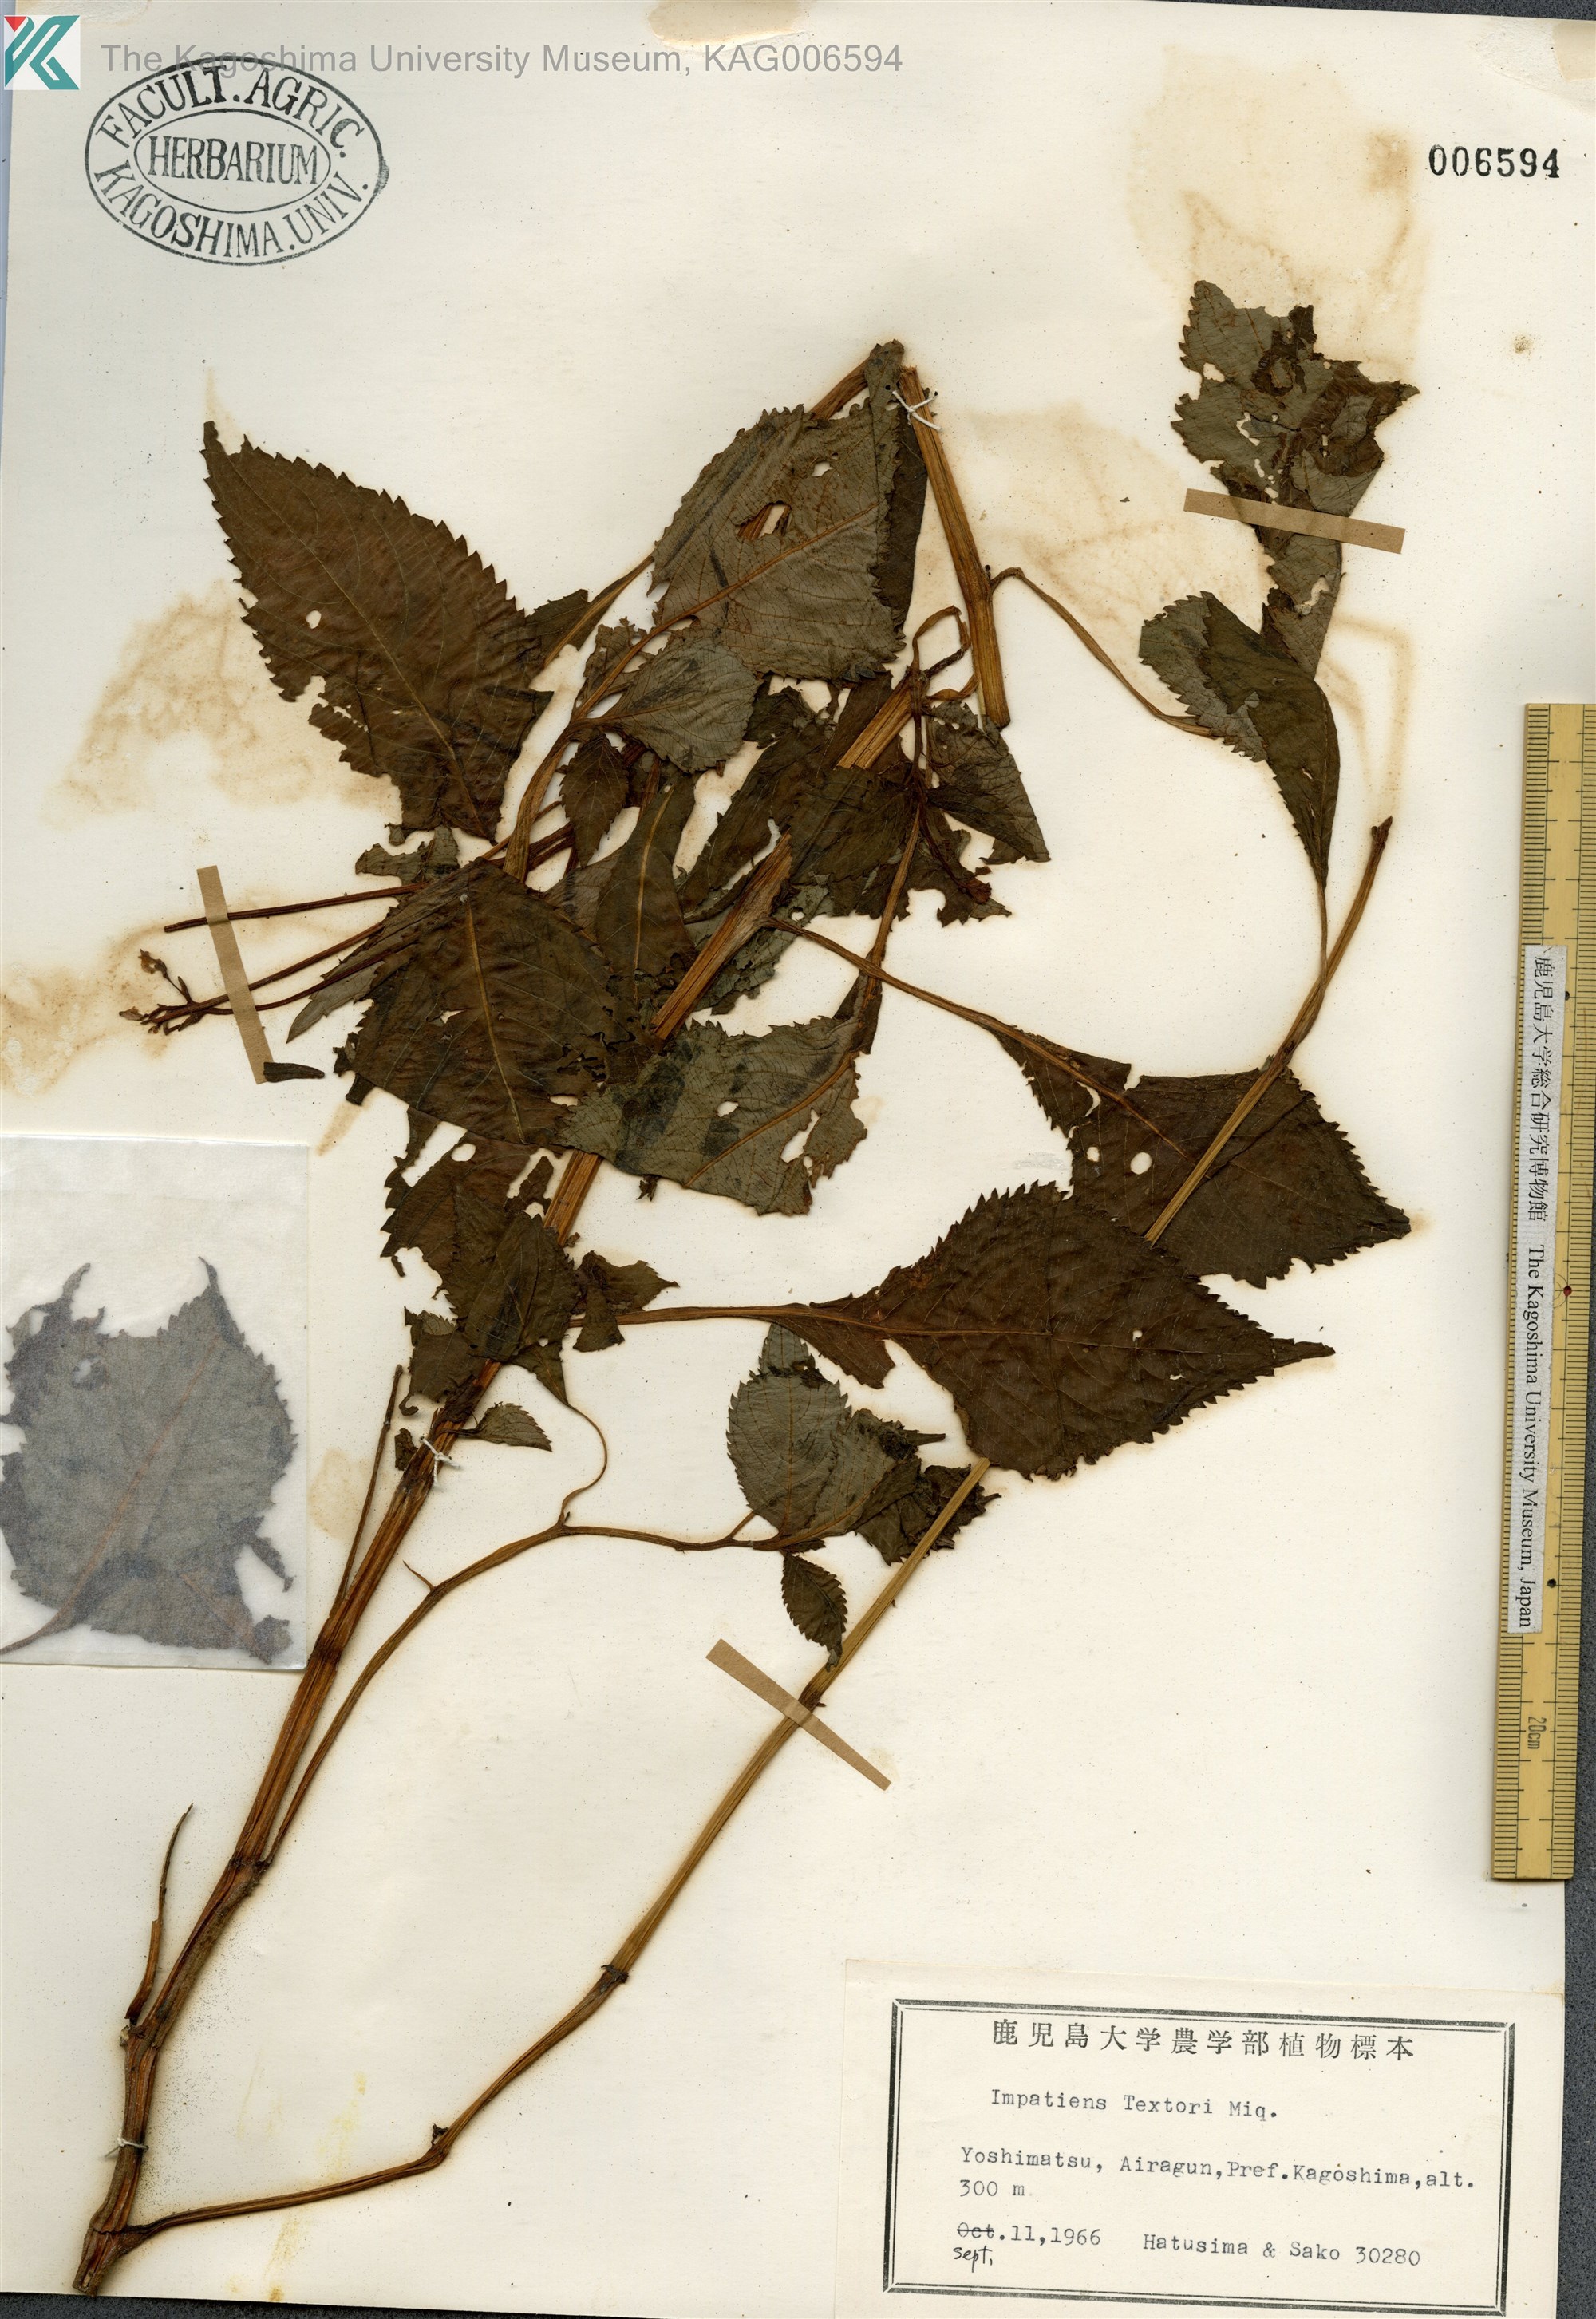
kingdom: Plantae
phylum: Tracheophyta
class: Magnoliopsida
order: Ericales
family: Balsaminaceae
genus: Impatiens
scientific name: Impatiens textorii
